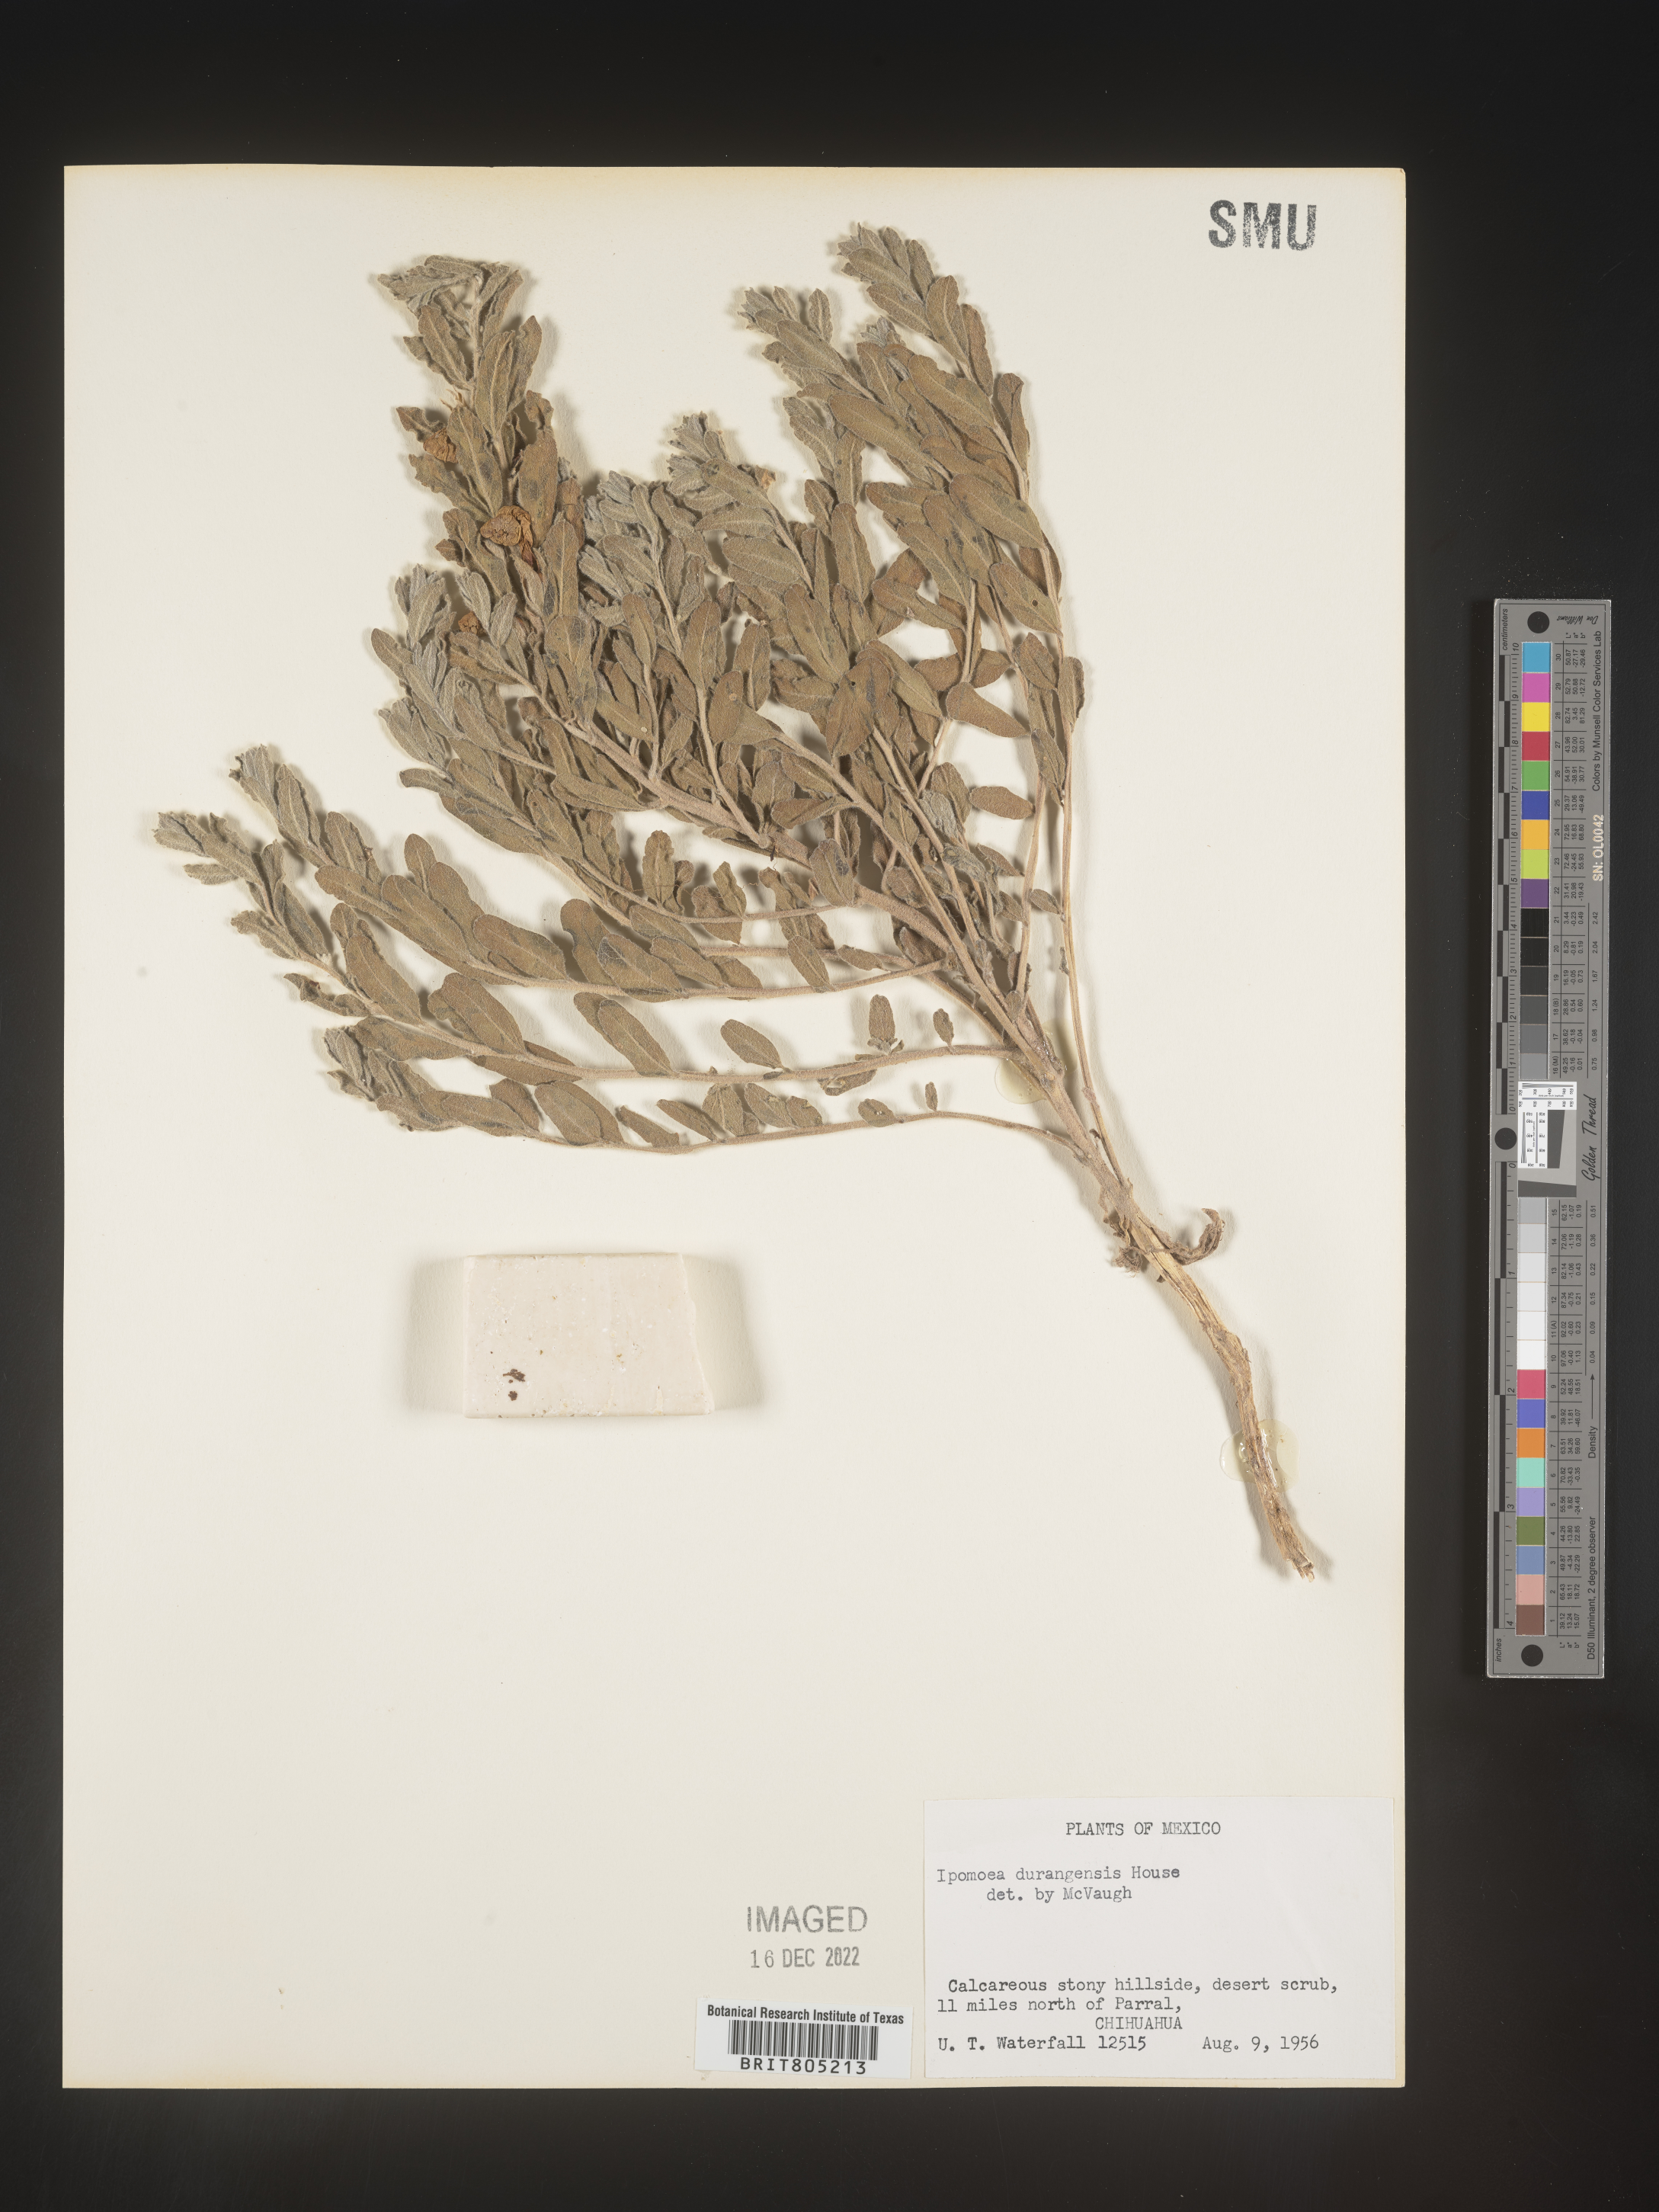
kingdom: Plantae
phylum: Tracheophyta
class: Magnoliopsida
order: Solanales
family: Convolvulaceae
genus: Ipomoea
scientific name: Ipomoea
